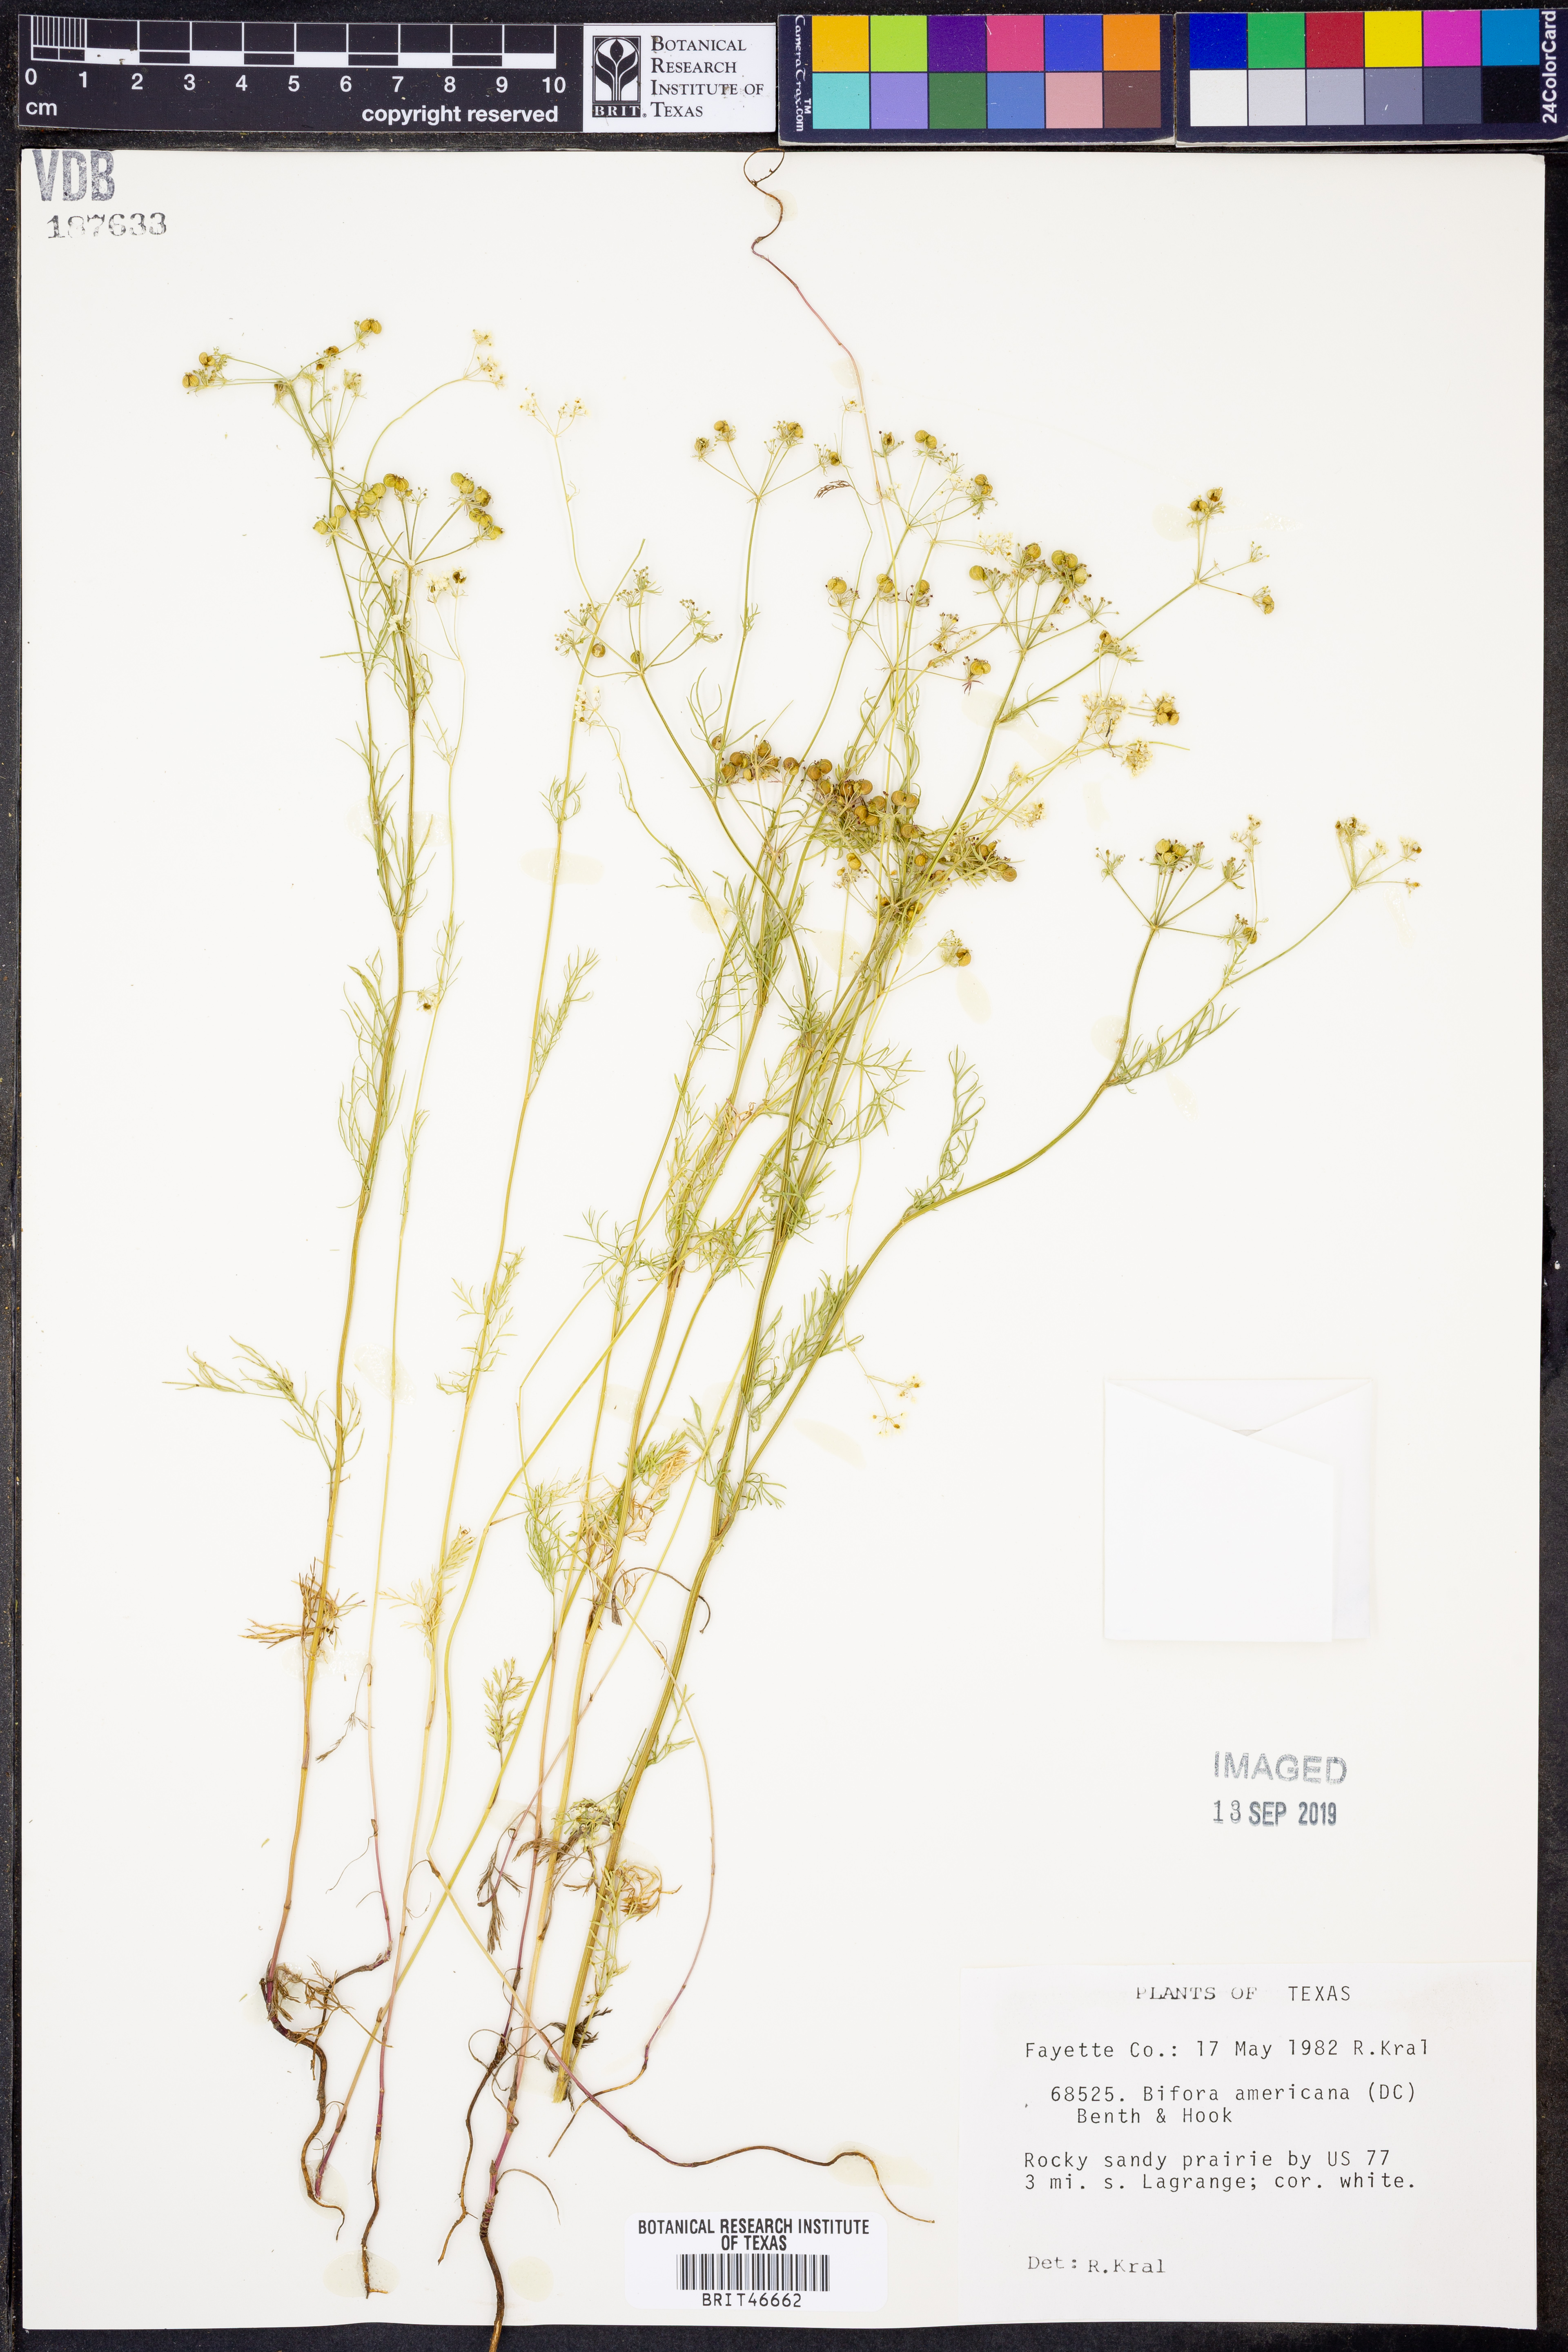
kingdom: Plantae
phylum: Tracheophyta
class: Magnoliopsida
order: Apiales
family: Apiaceae
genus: Atrema
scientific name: Atrema americanum
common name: Prairie-bishop
